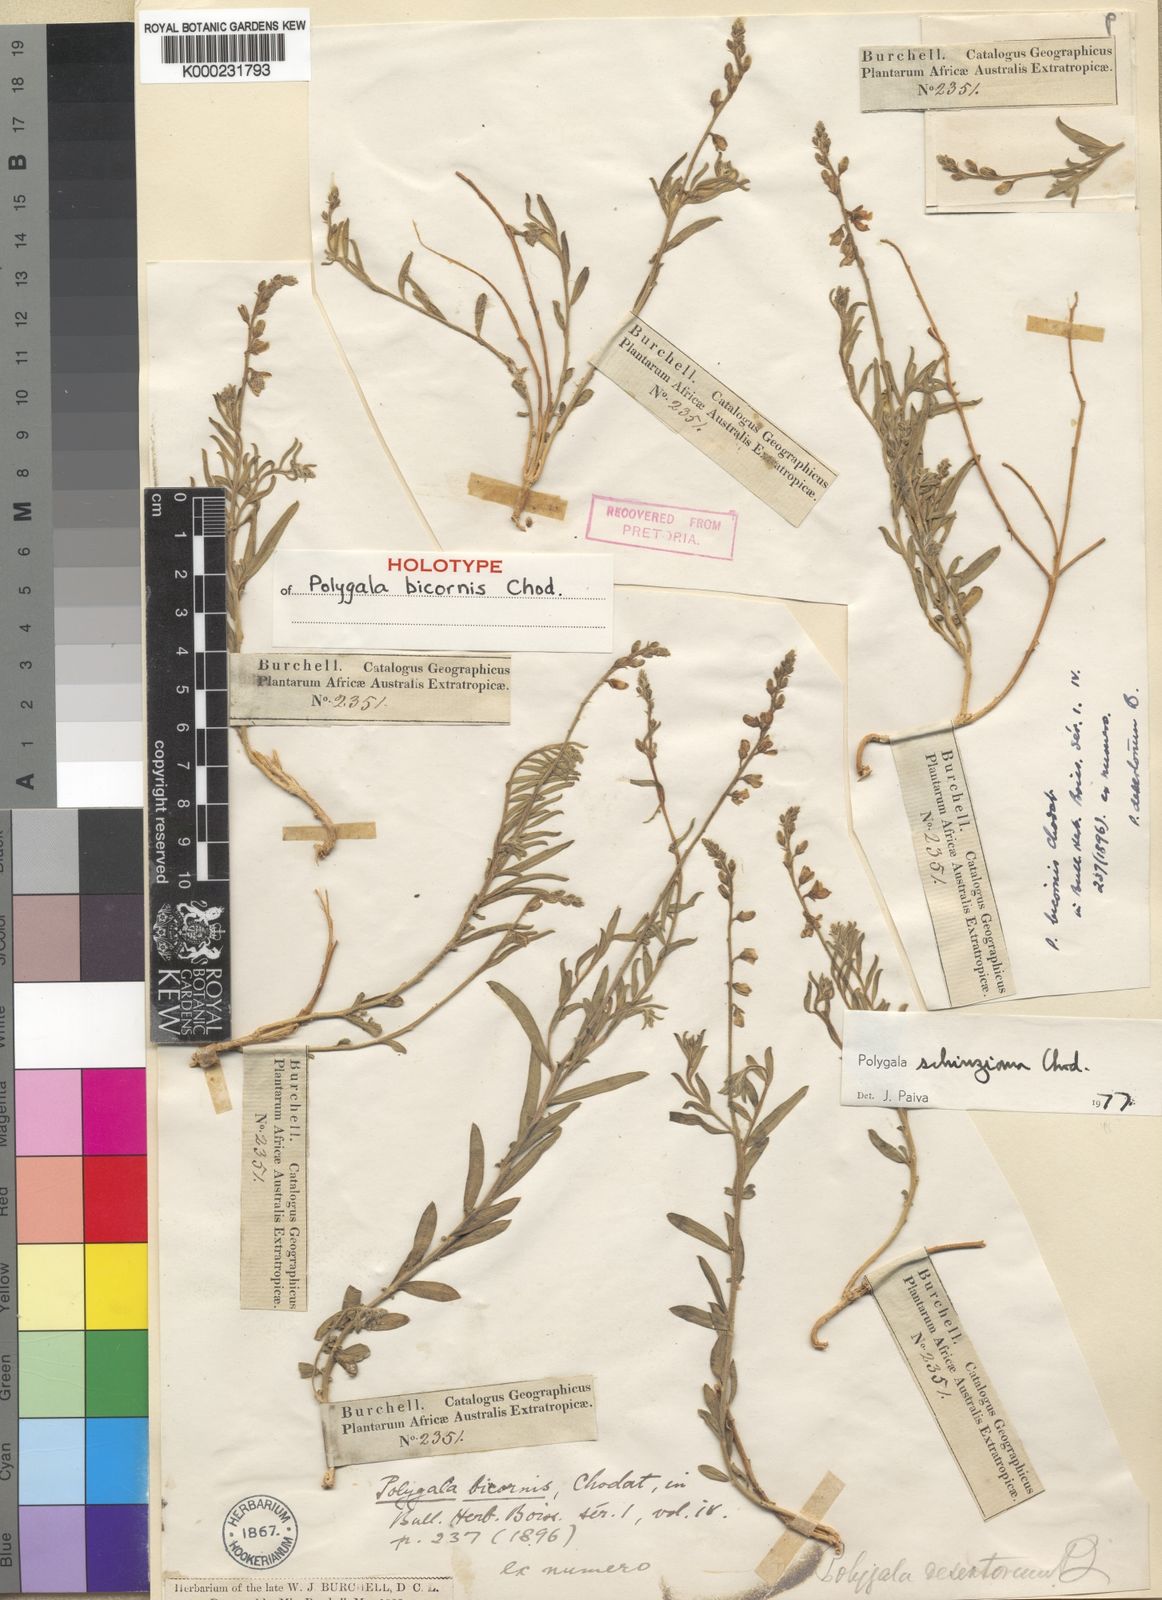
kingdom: Plantae
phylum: Tracheophyta
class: Magnoliopsida
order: Fabales
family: Polygalaceae
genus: Polygala
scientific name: Polygala schinziana
